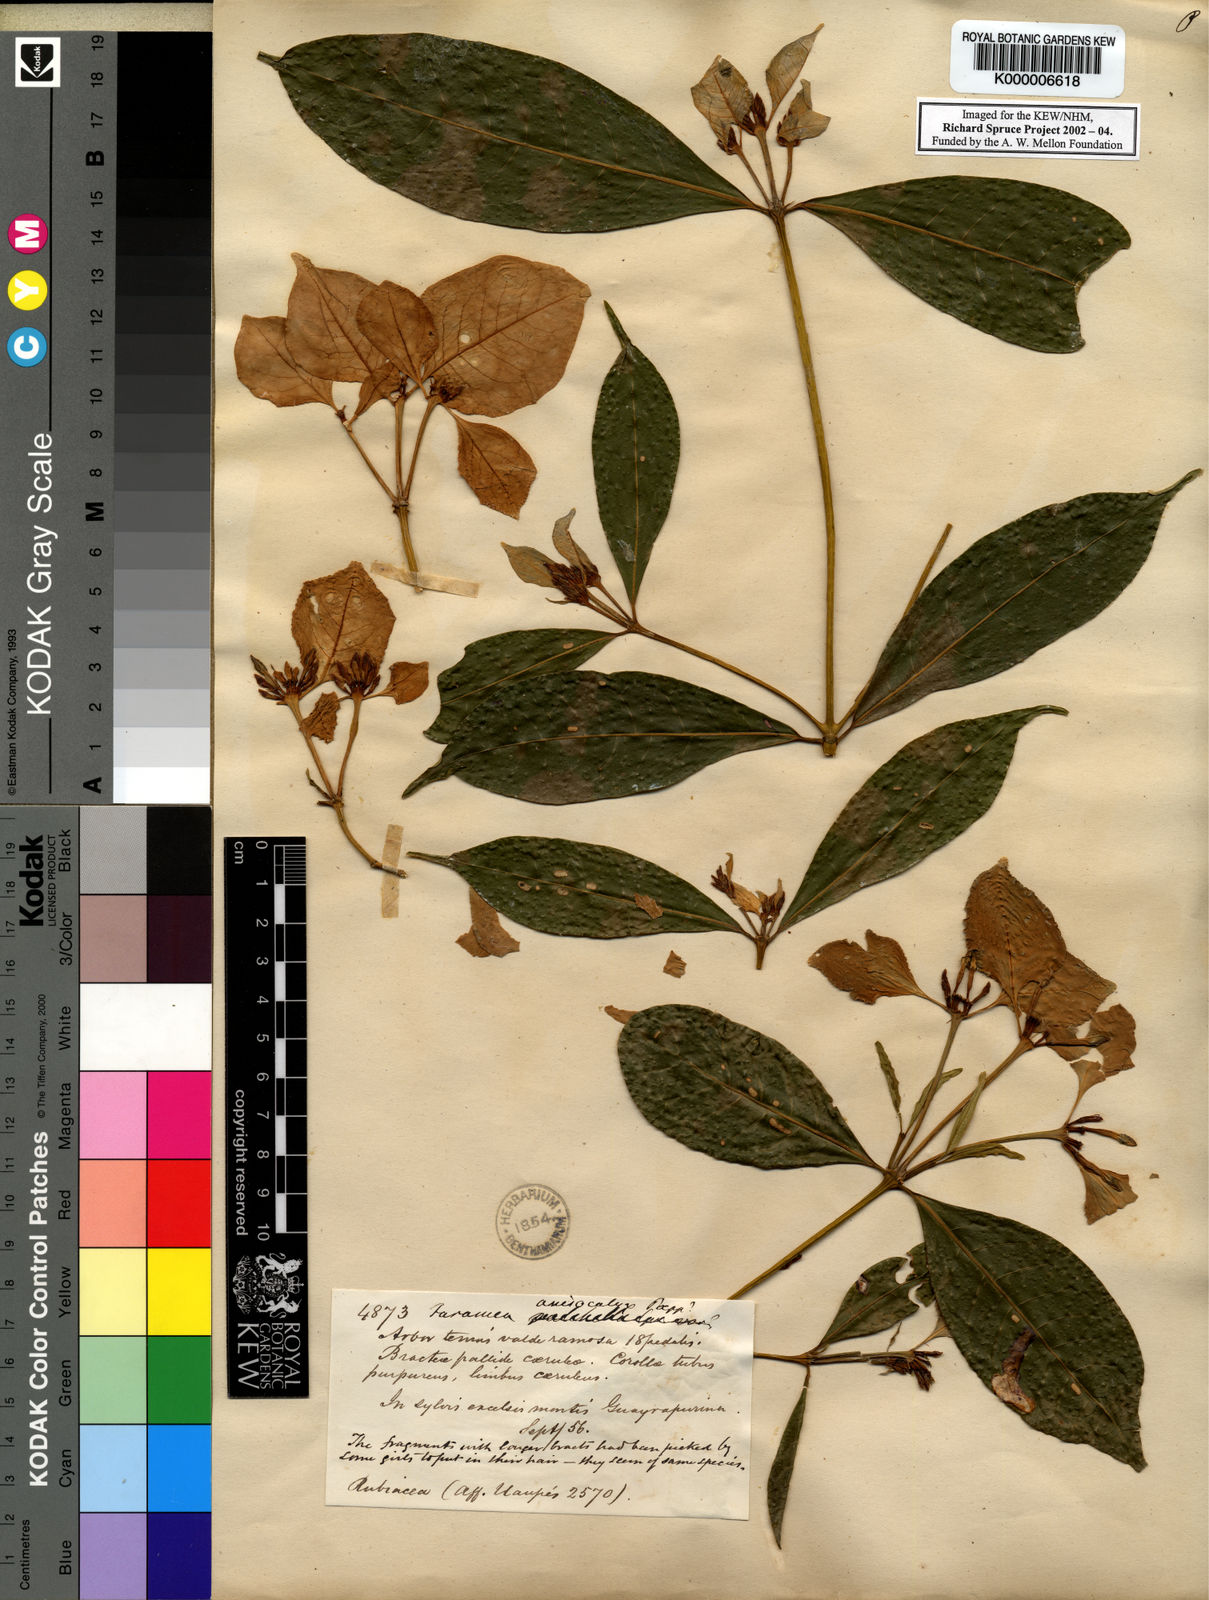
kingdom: Plantae
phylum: Tracheophyta
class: Magnoliopsida
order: Gentianales
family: Rubiaceae
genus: Faramea
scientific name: Faramea
